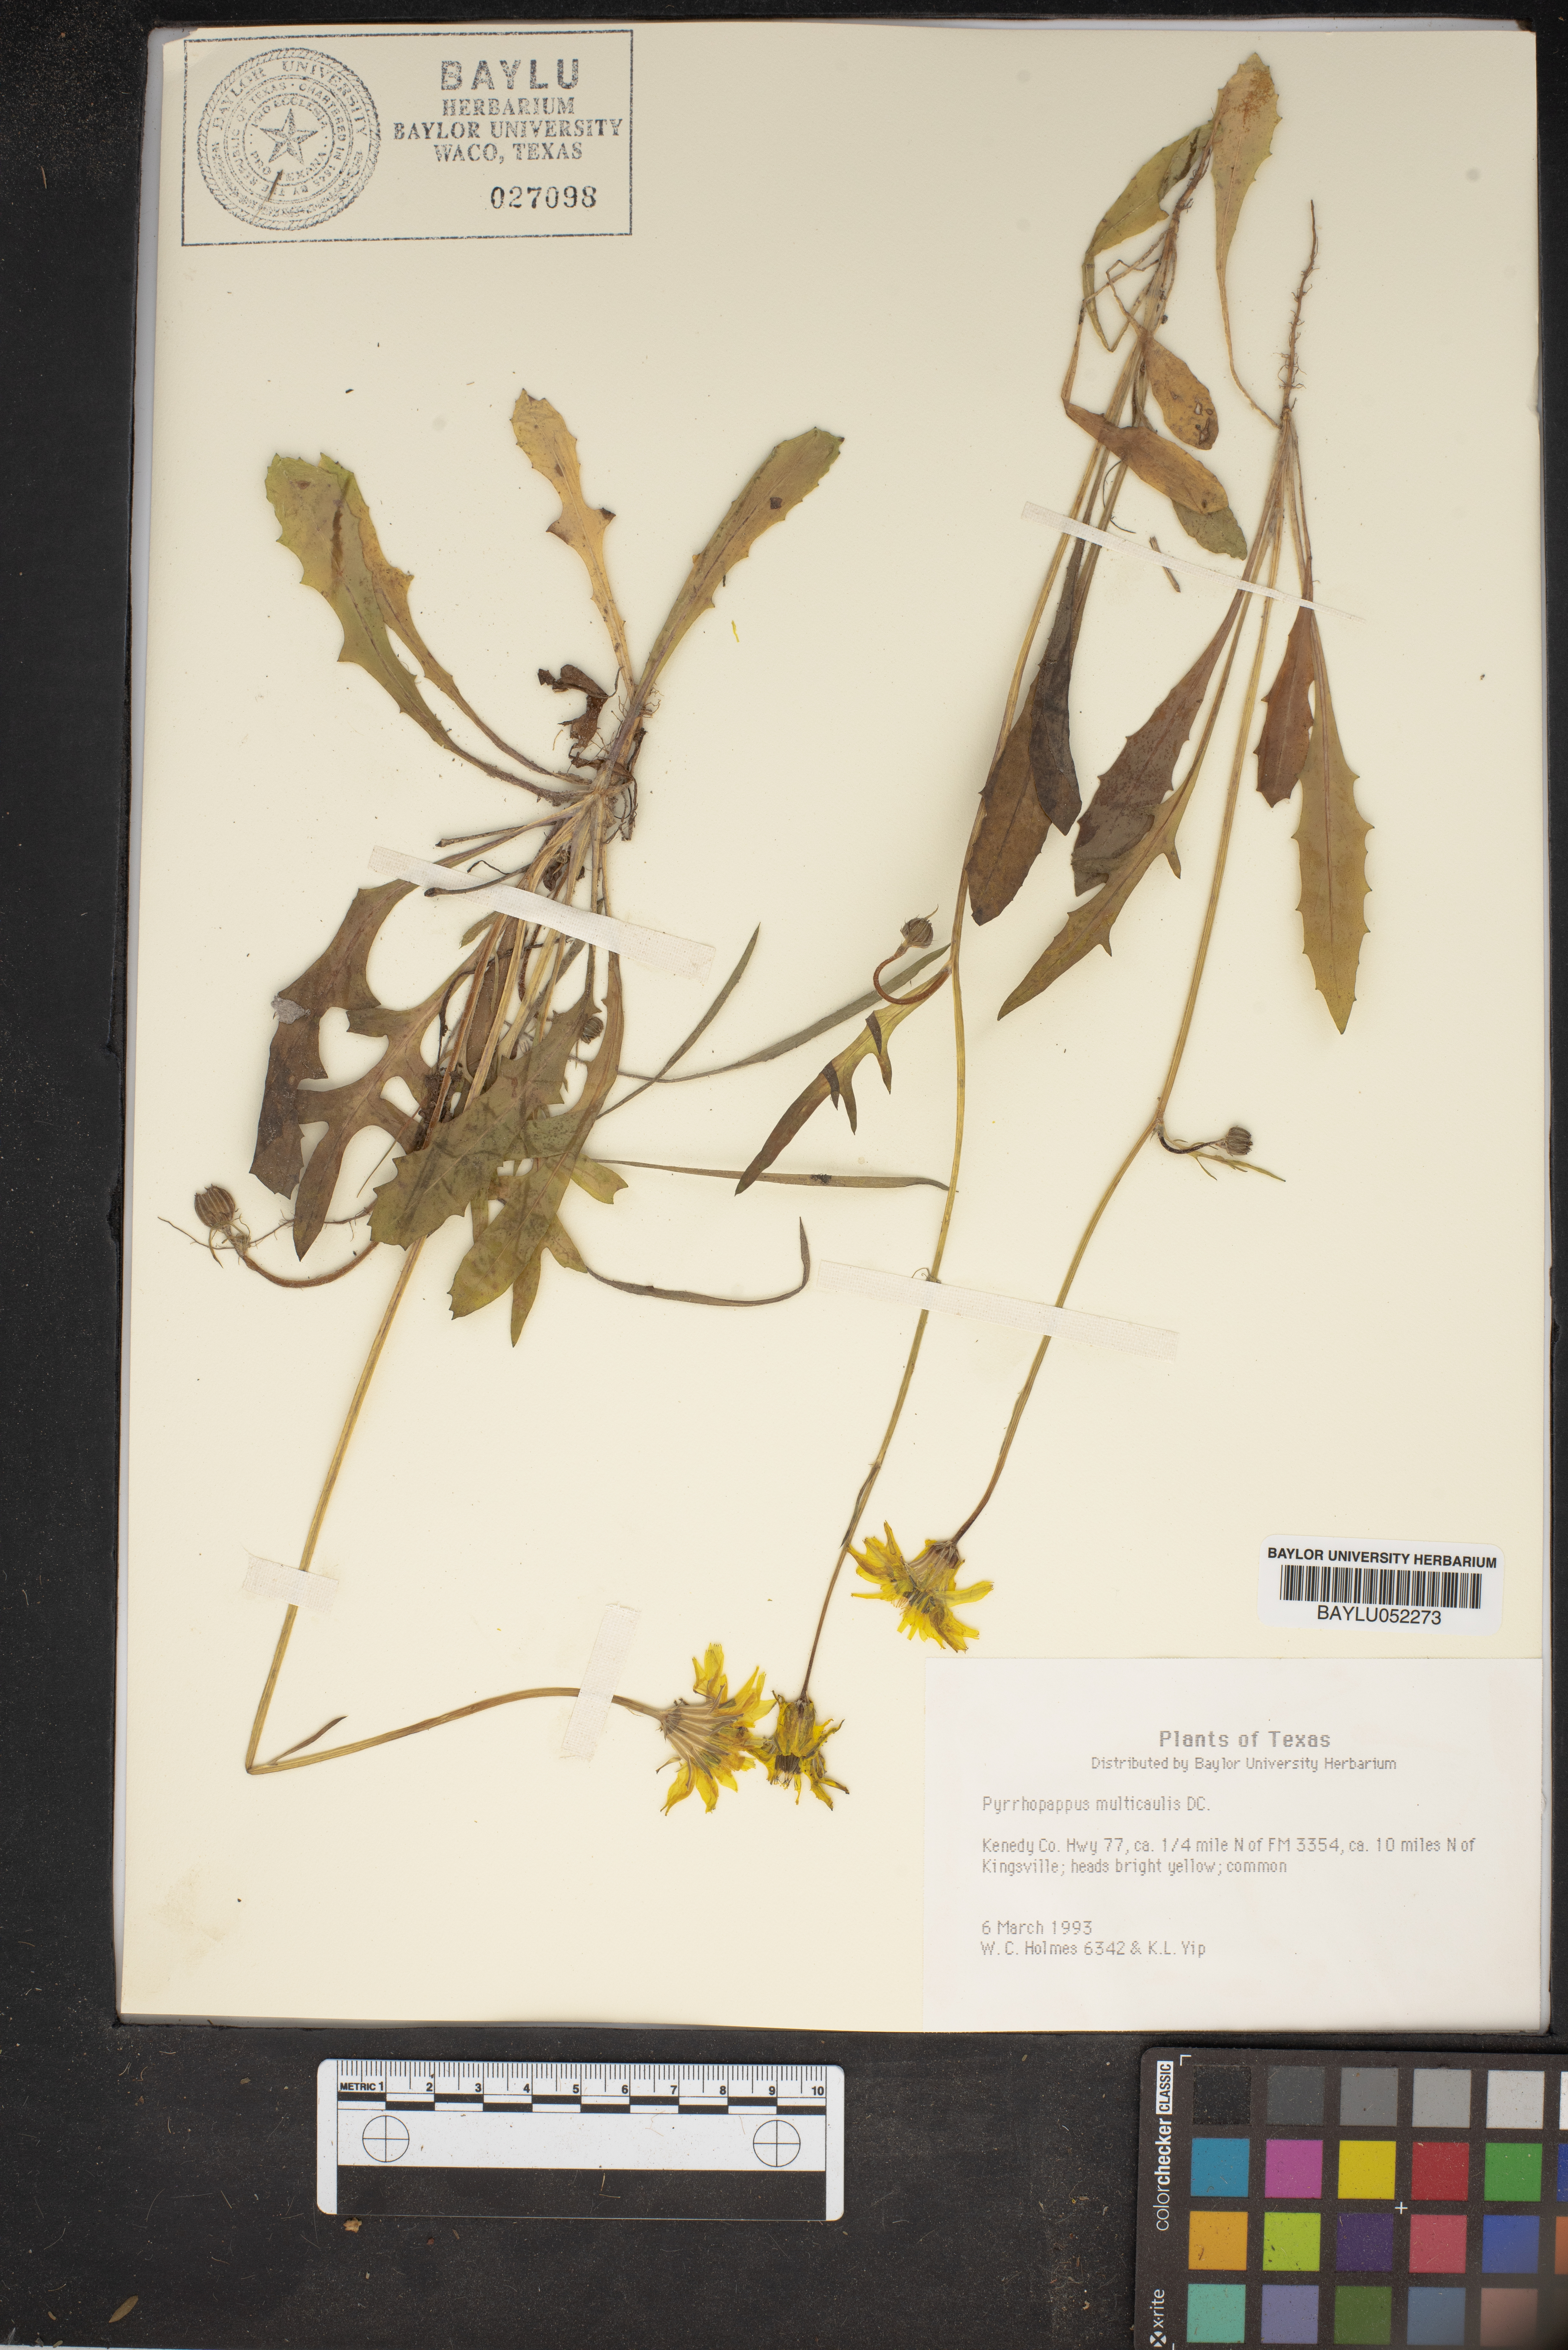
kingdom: Plantae
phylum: Tracheophyta
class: Magnoliopsida
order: Asterales
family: Asteraceae
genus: Pyrrhopappus
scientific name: Pyrrhopappus pauciflorus
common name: Texas false dandelion
